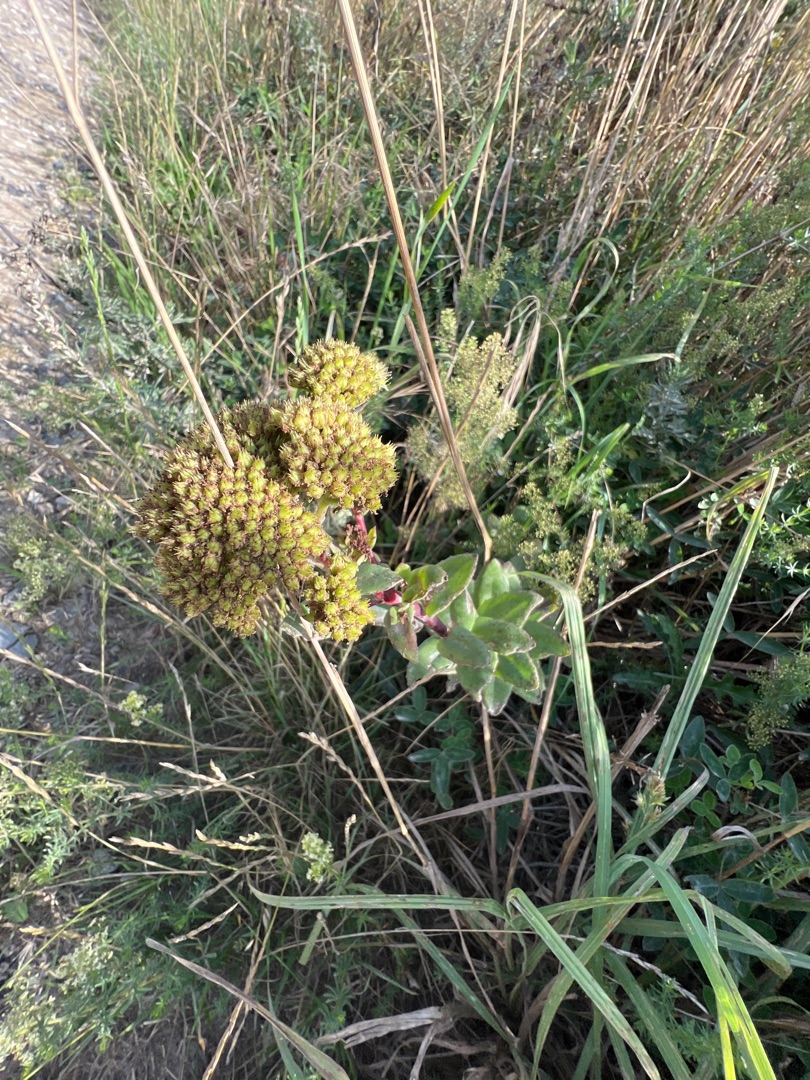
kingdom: Plantae
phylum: Tracheophyta
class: Magnoliopsida
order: Saxifragales
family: Crassulaceae
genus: Hylotelephium
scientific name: Hylotelephium maximum
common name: Almindelig sankthansurt
